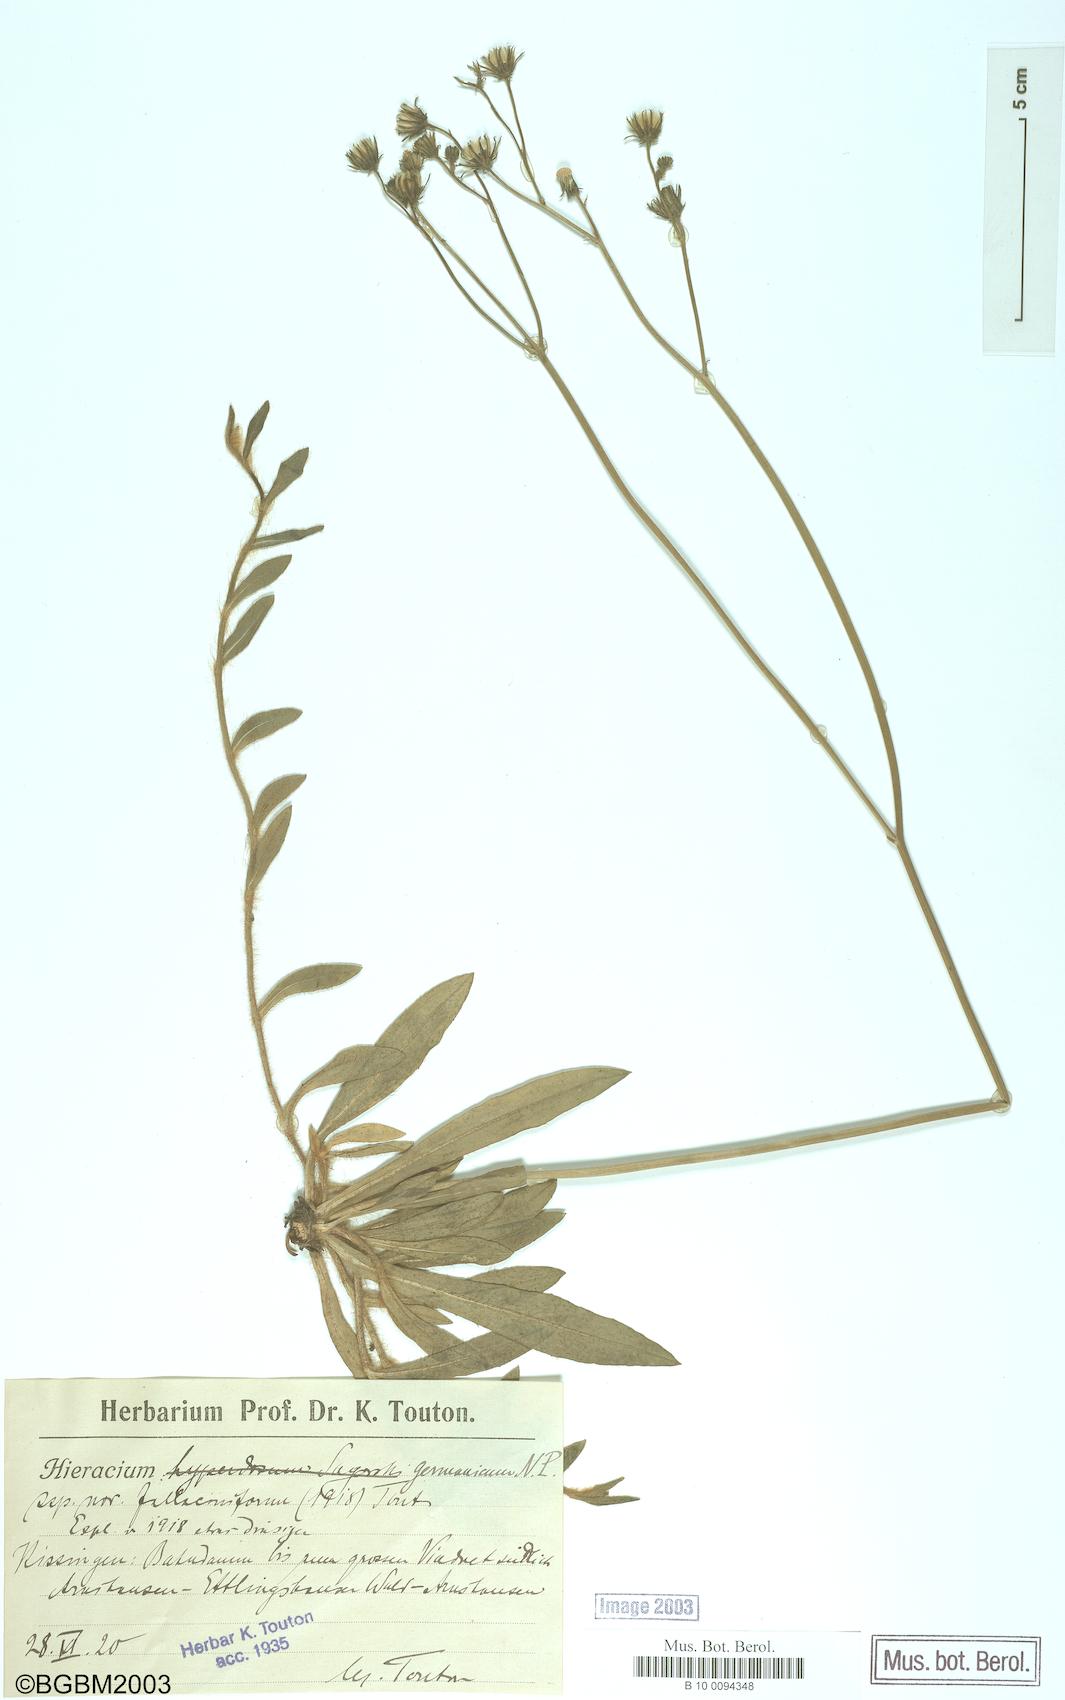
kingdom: Plantae
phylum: Tracheophyta
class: Magnoliopsida
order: Asterales
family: Asteraceae
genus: Pilosella
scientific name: Pilosella fallacina
